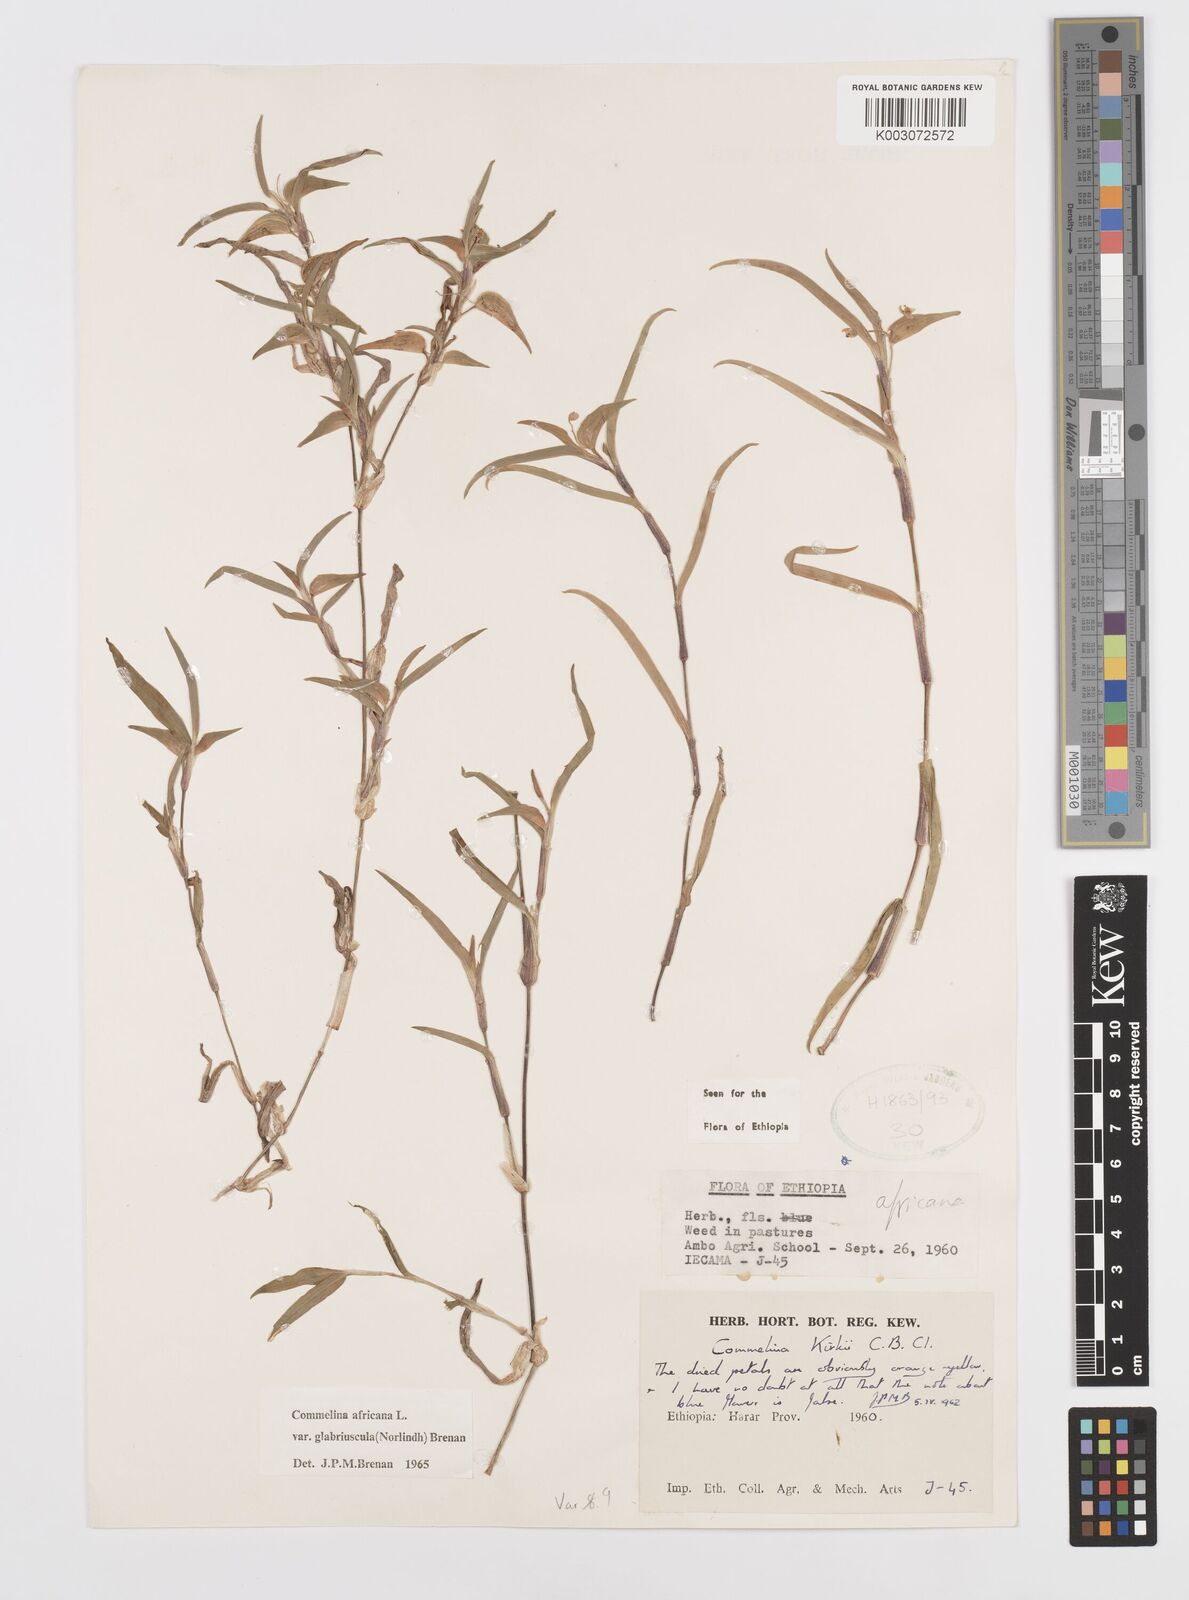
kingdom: Plantae
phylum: Tracheophyta
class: Liliopsida
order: Commelinales
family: Commelinaceae
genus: Commelina
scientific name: Commelina africana
